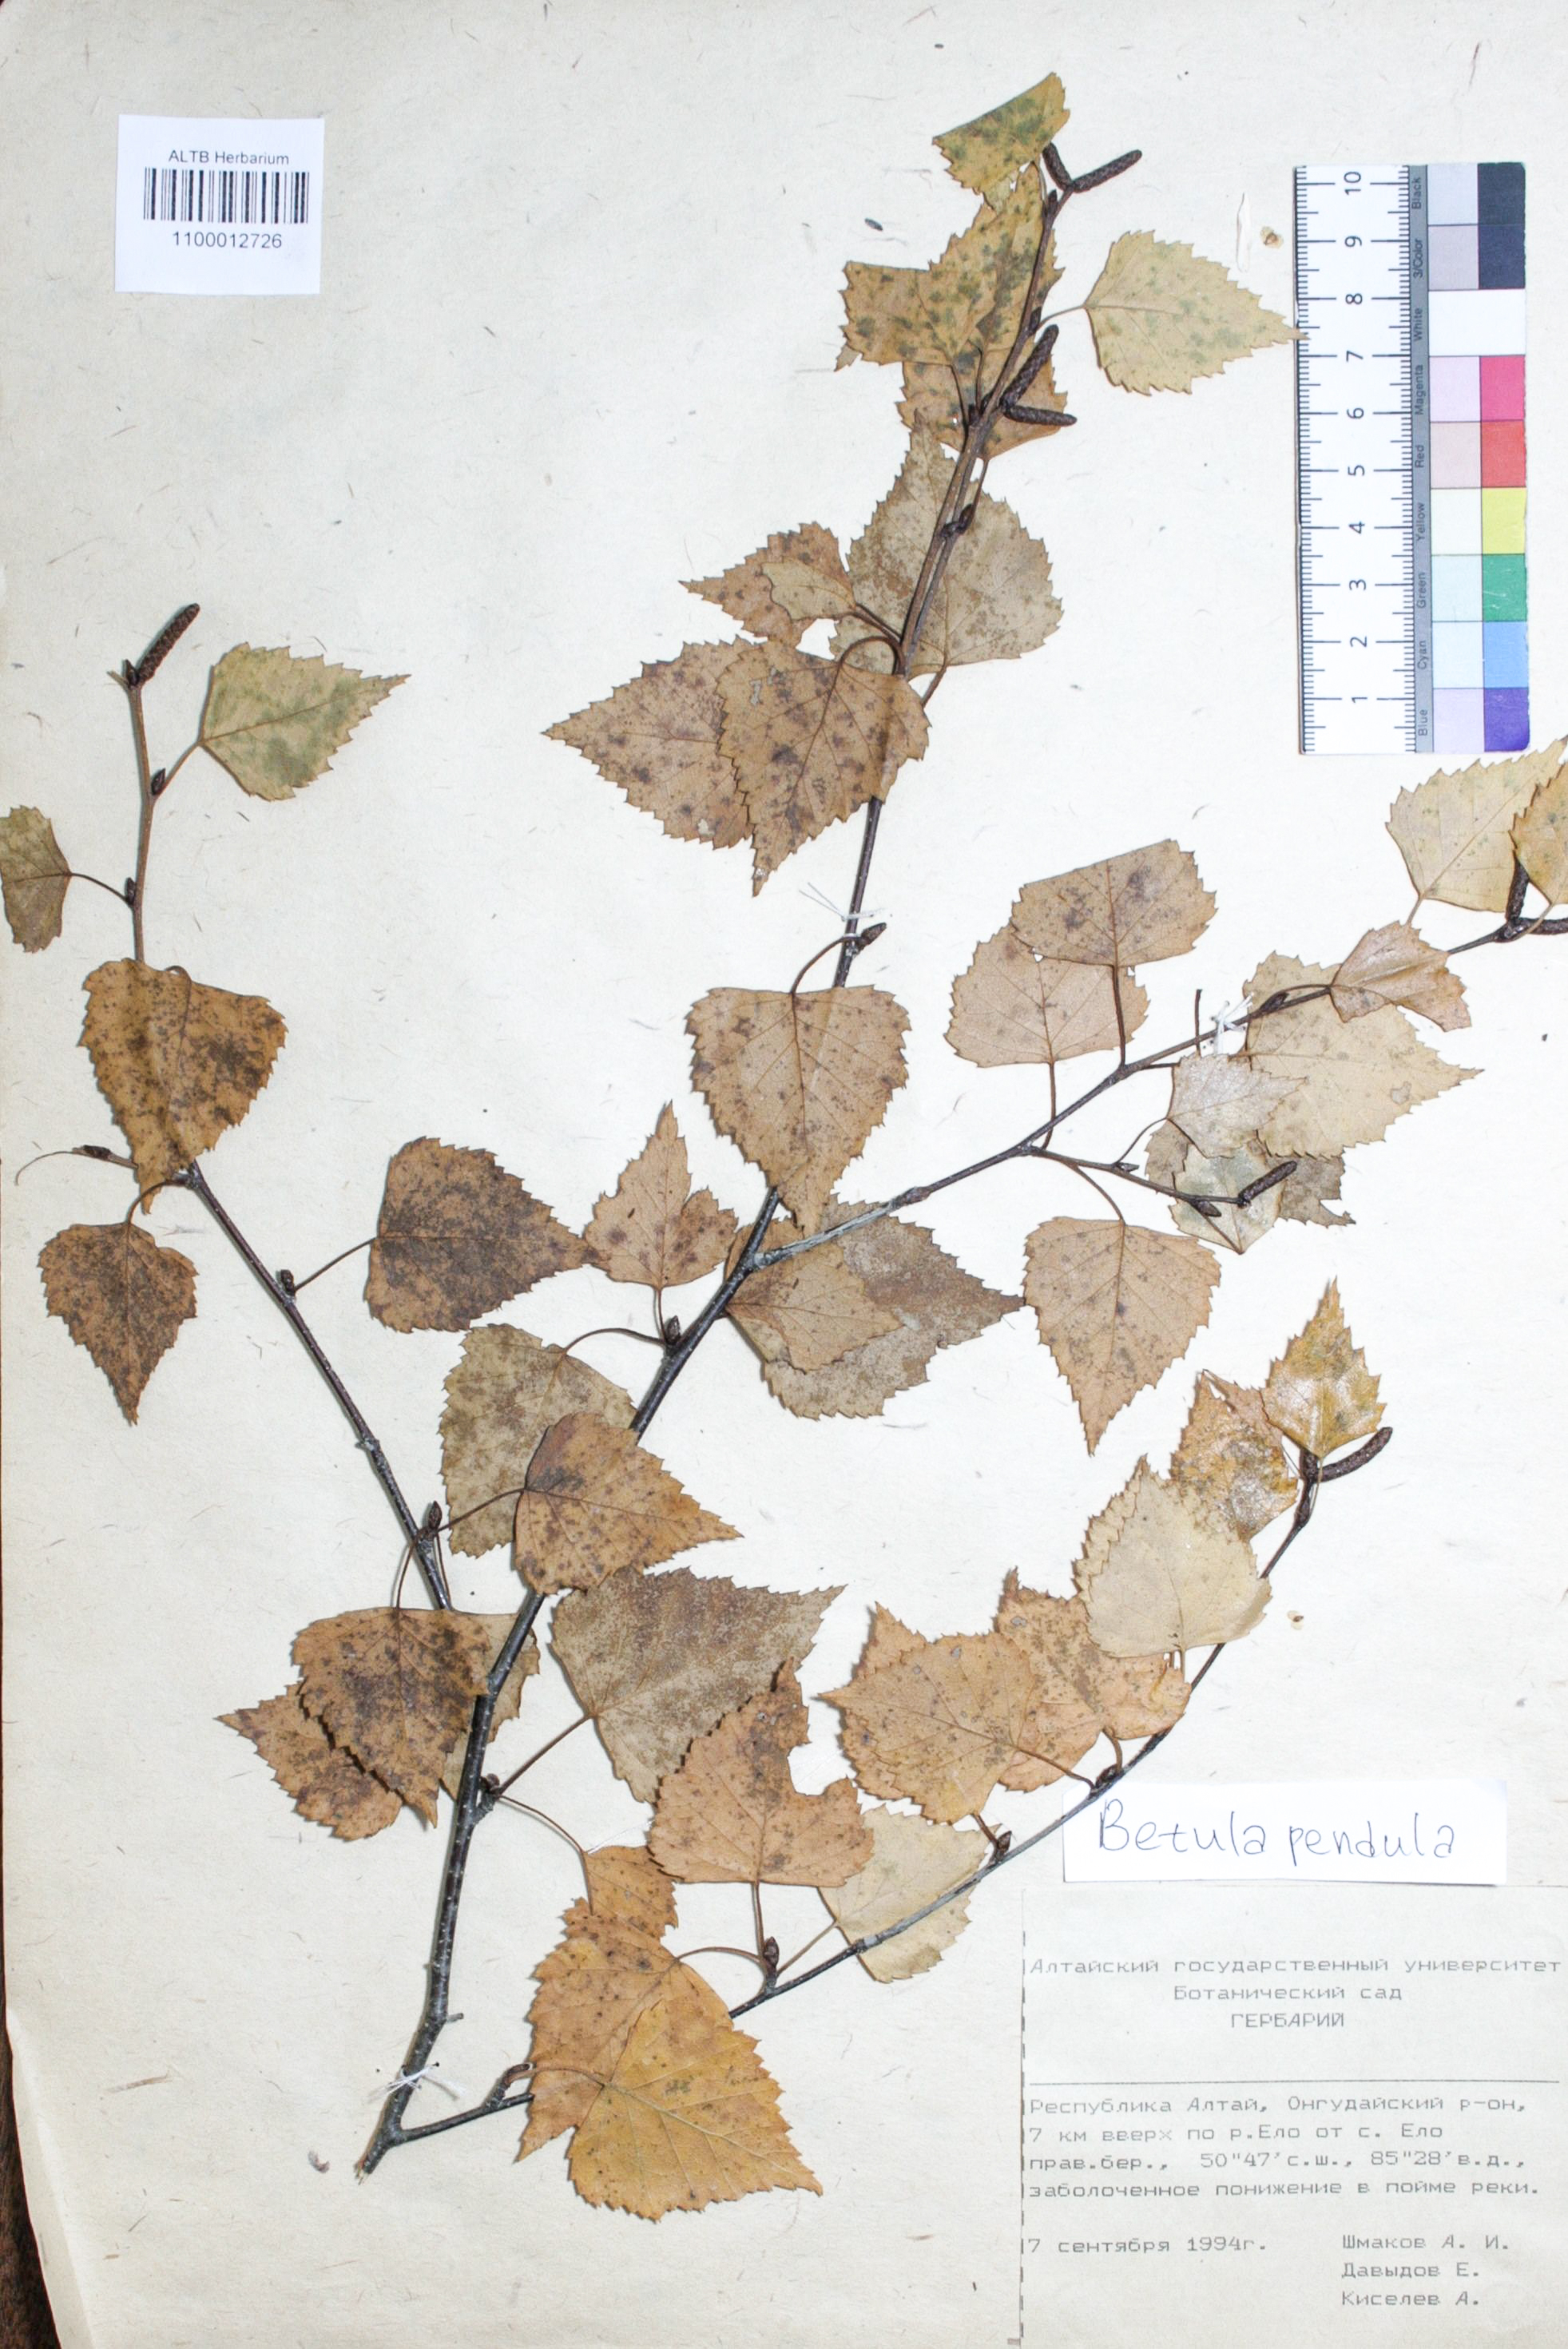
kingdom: Plantae
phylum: Tracheophyta
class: Magnoliopsida
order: Fagales
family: Betulaceae
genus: Betula
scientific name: Betula pendula
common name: Silver birch
